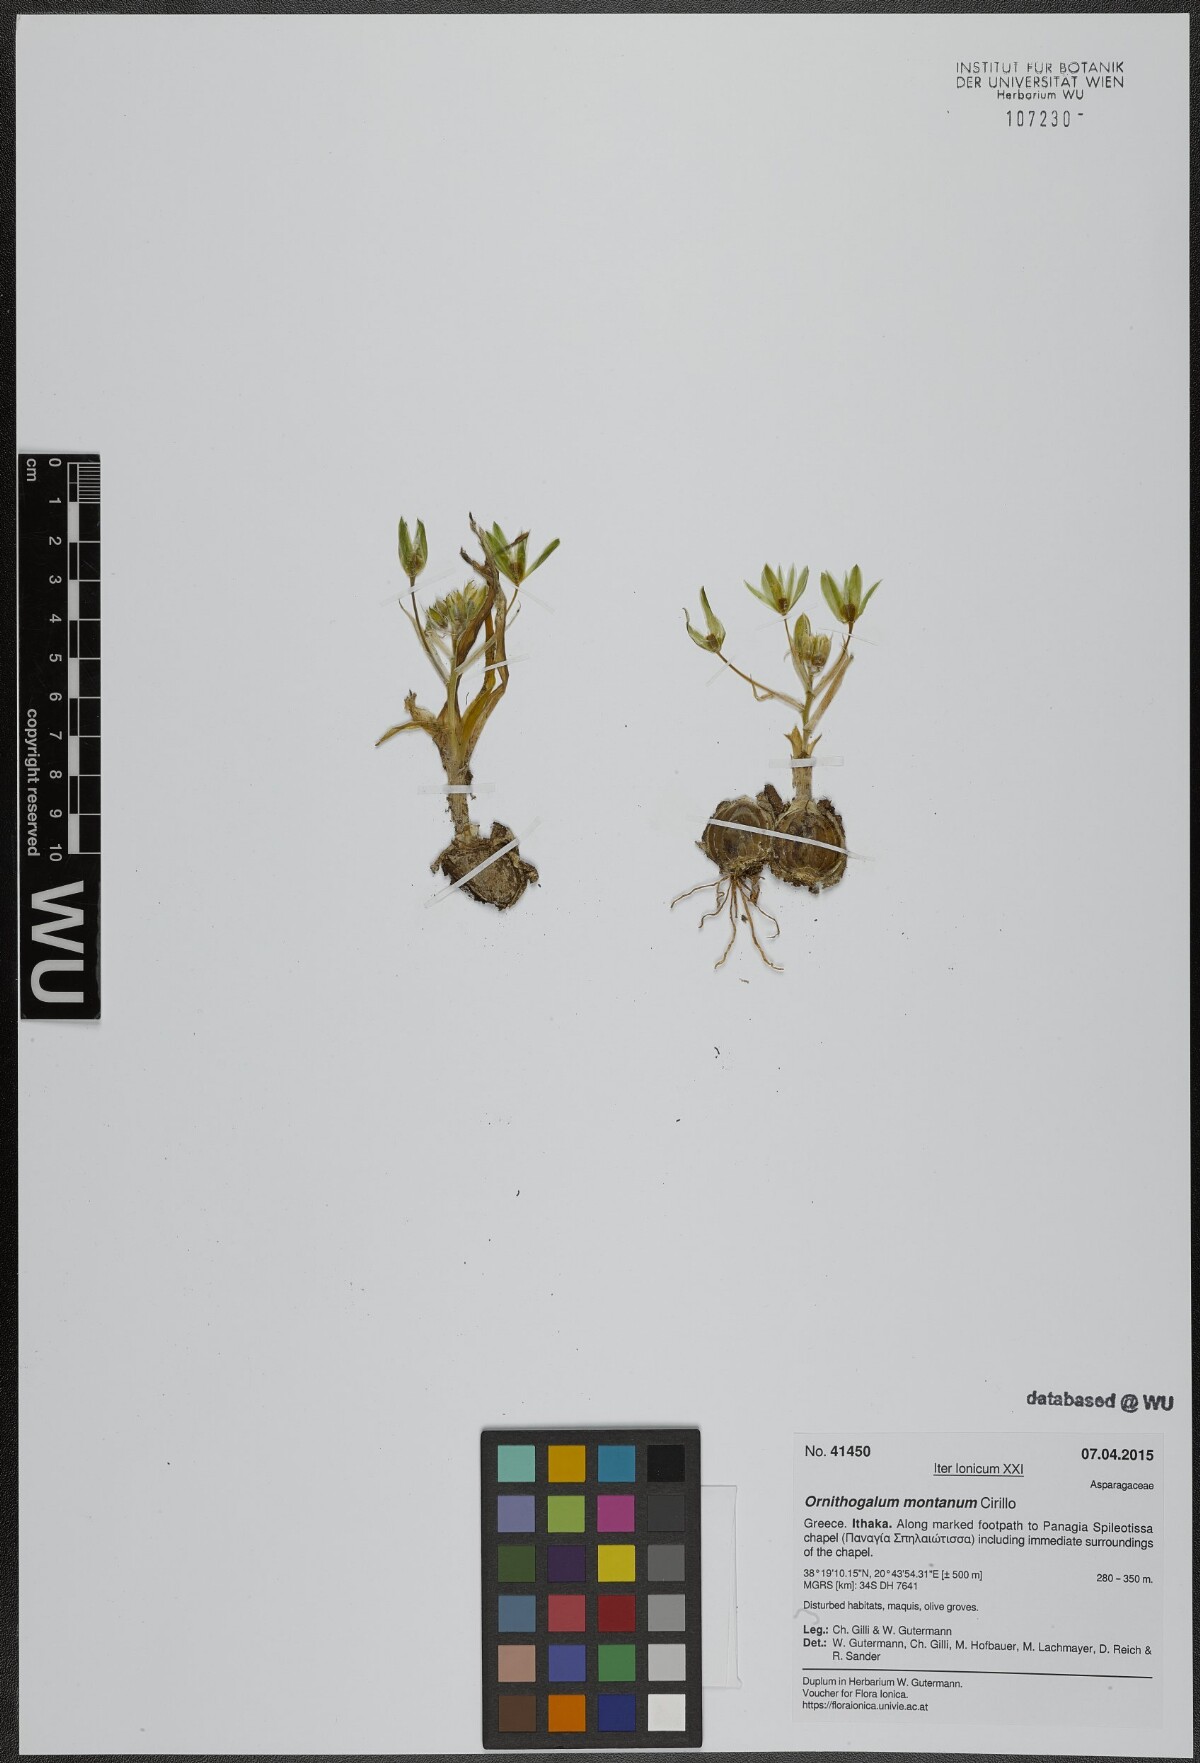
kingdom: Plantae
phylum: Tracheophyta
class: Liliopsida
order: Asparagales
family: Asparagaceae
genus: Ornithogalum
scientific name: Ornithogalum montanum
